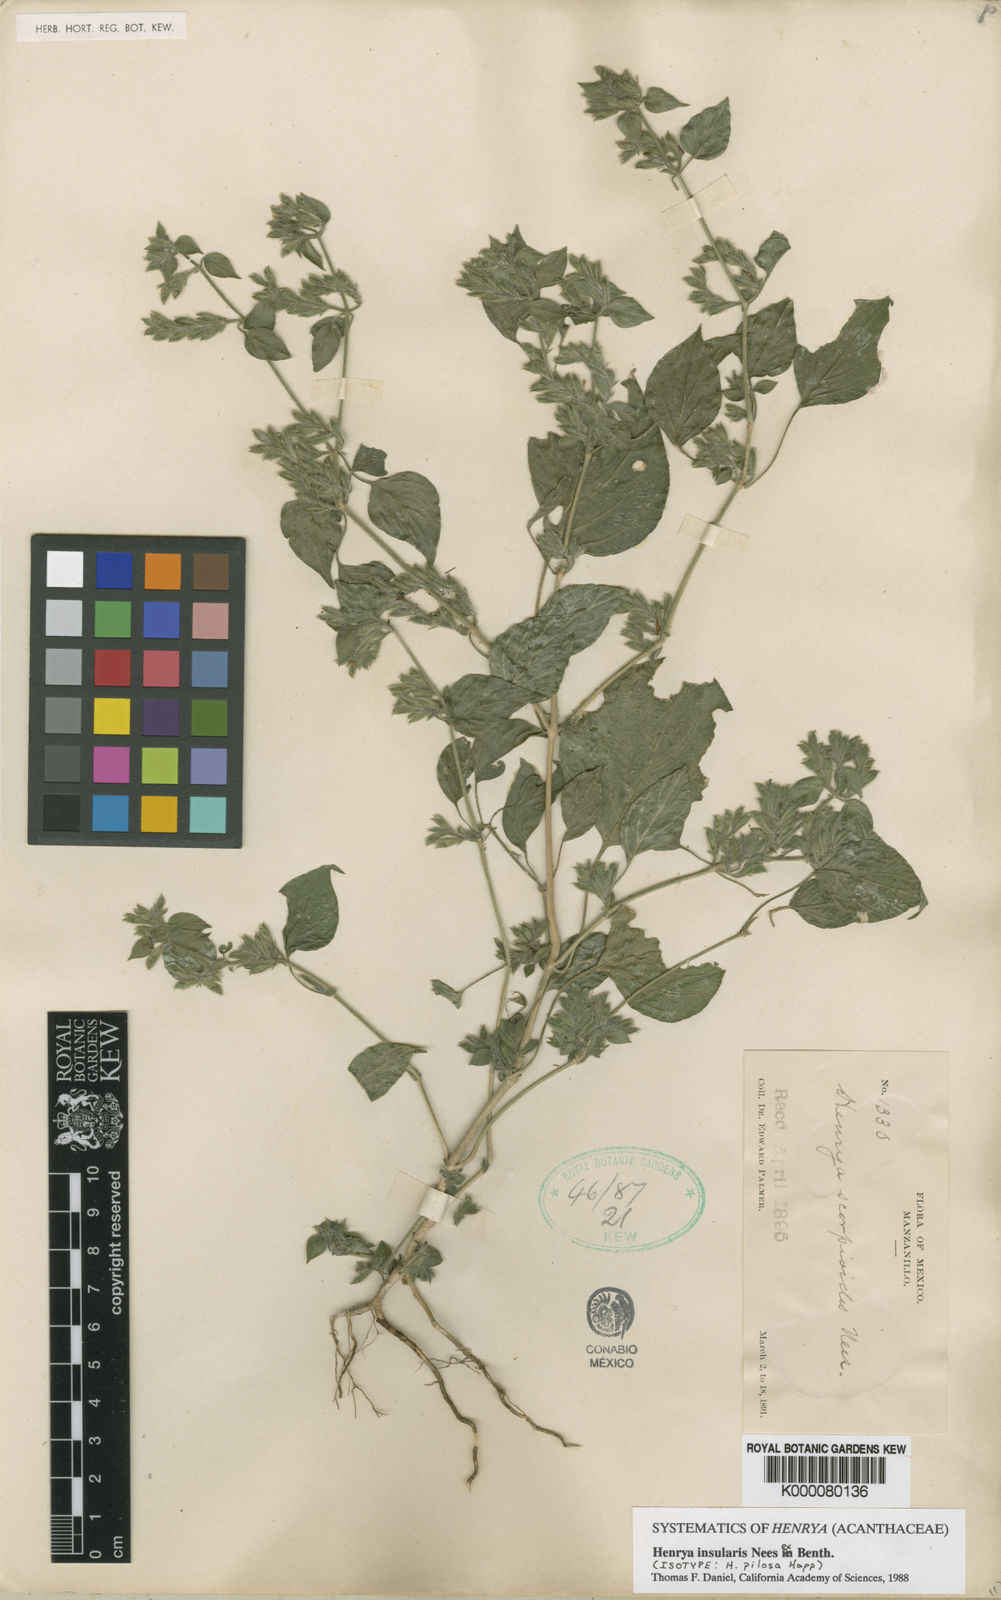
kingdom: Plantae
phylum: Tracheophyta
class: Magnoliopsida
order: Lamiales
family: Acanthaceae
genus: Henrya
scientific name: Henrya
